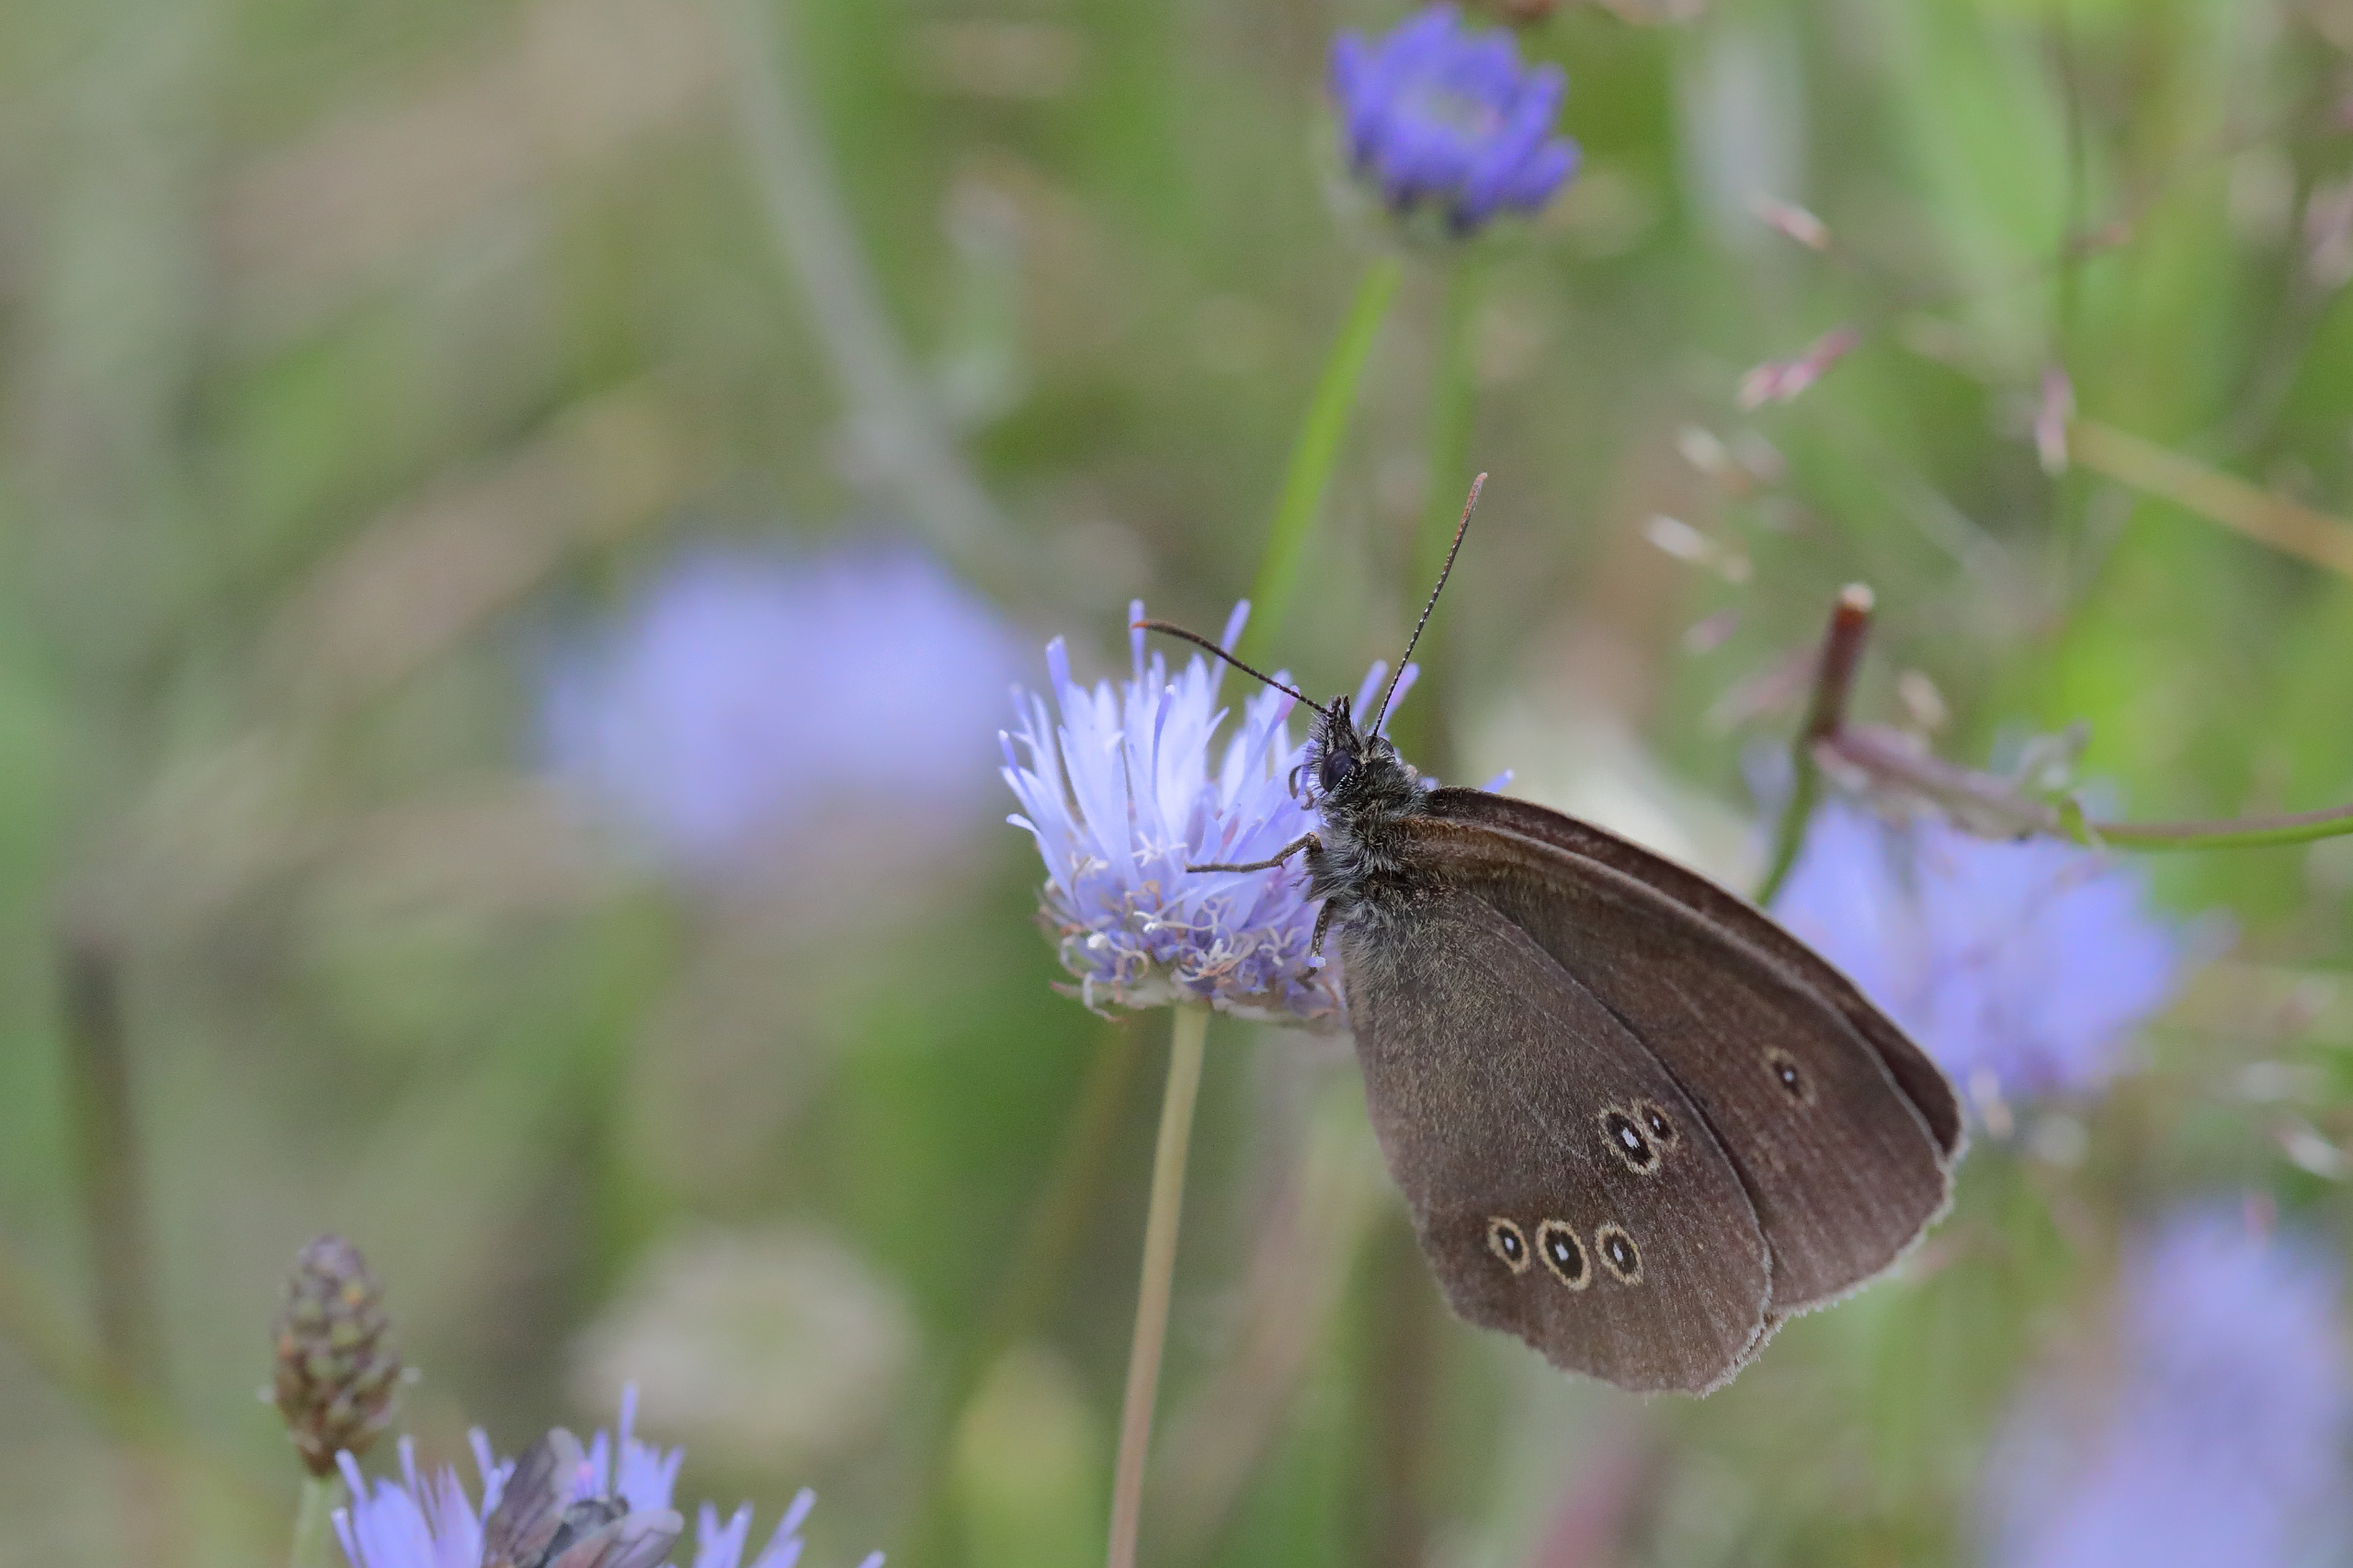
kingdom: Animalia
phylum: Arthropoda
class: Insecta
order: Lepidoptera
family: Nymphalidae
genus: Aphantopus
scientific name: Aphantopus hyperantus
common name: Engrandøje
